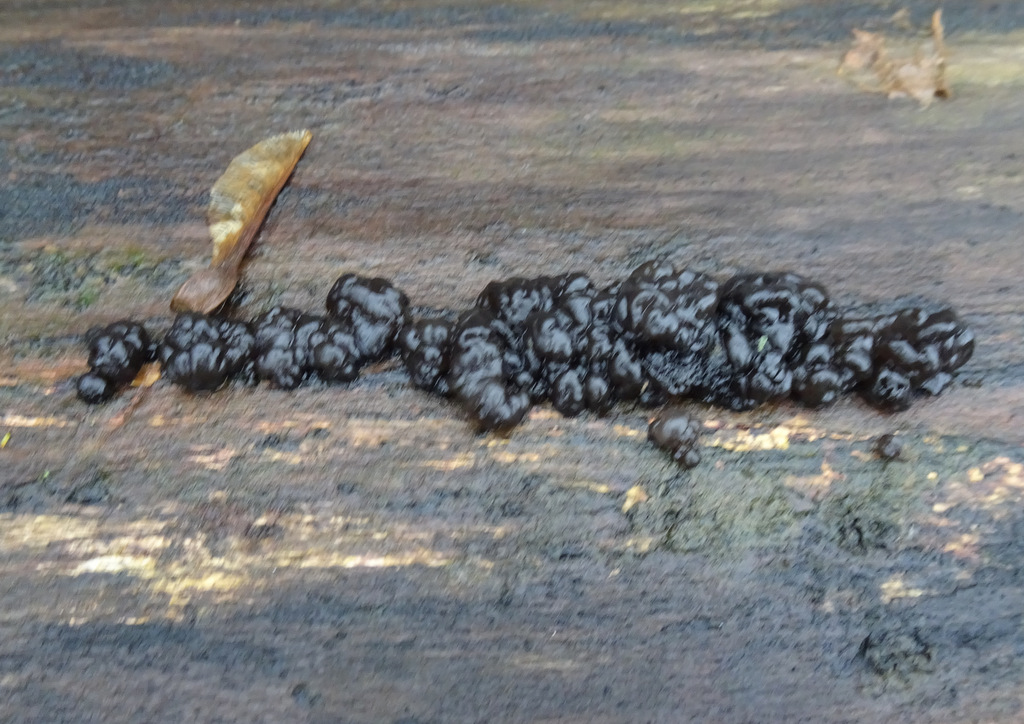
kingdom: Fungi
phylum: Basidiomycota
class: Agaricomycetes
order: Auriculariales
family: Auriculariaceae
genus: Exidia
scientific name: Exidia nigricans
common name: almindelig bævretop
